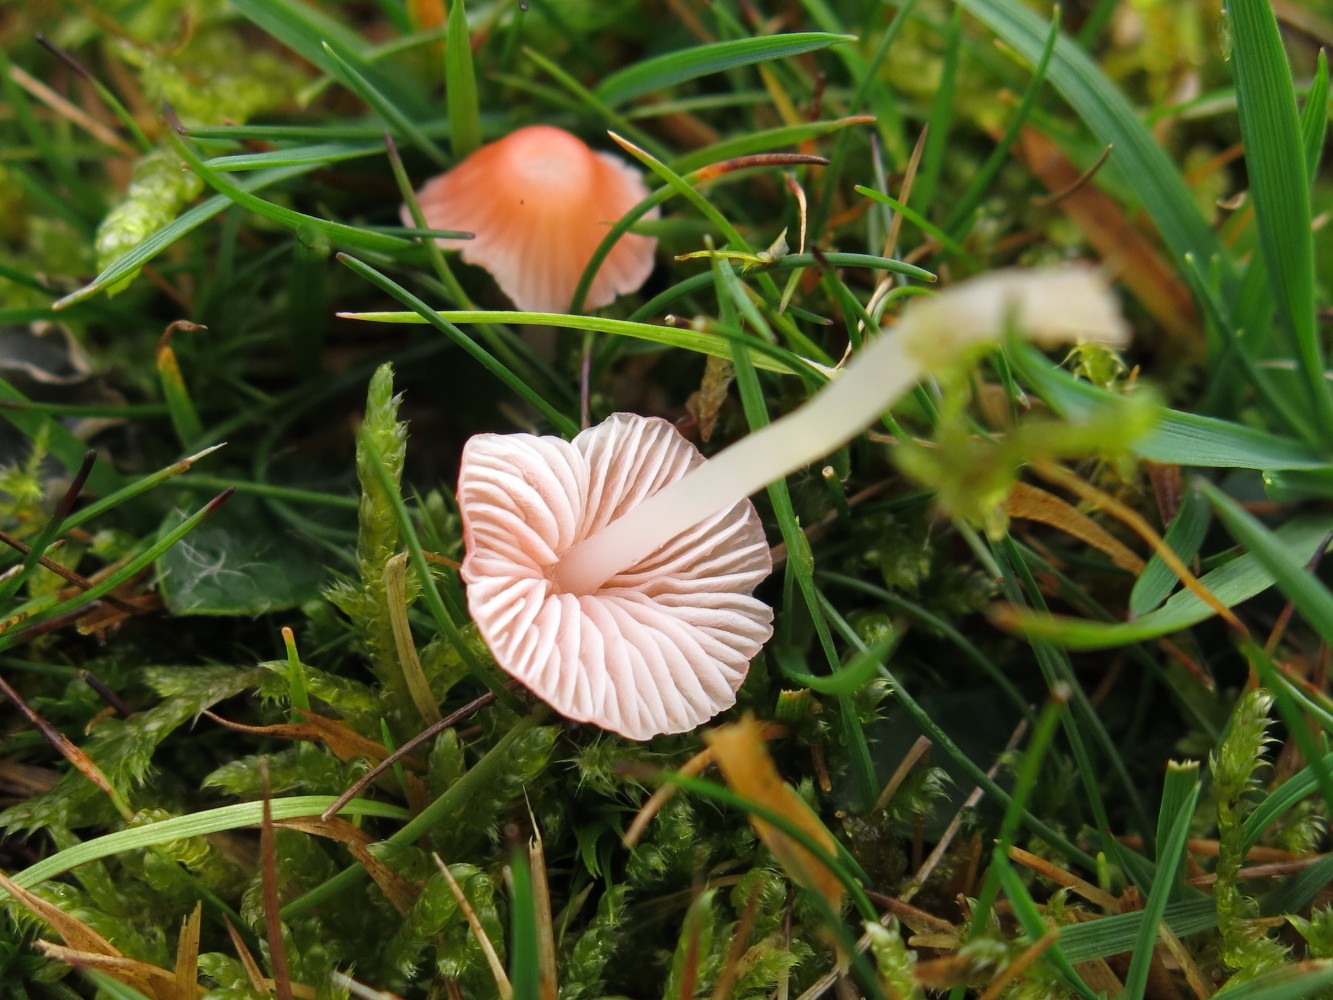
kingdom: Fungi
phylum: Basidiomycota
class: Agaricomycetes
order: Agaricales
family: Mycenaceae
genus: Atheniella
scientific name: Atheniella adonis
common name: rønnerød huesvamp
